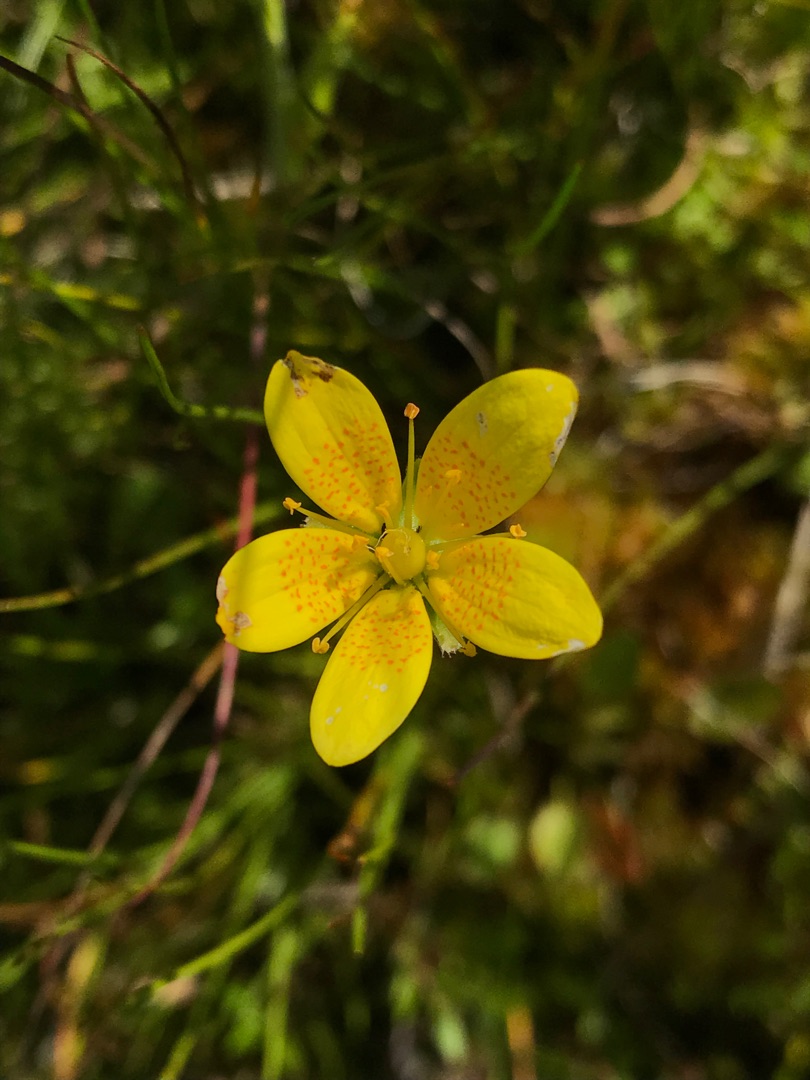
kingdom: Plantae
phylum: Tracheophyta
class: Magnoliopsida
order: Saxifragales
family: Saxifragaceae
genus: Saxifraga
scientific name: Saxifraga hirculus
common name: Gul stenbræk
